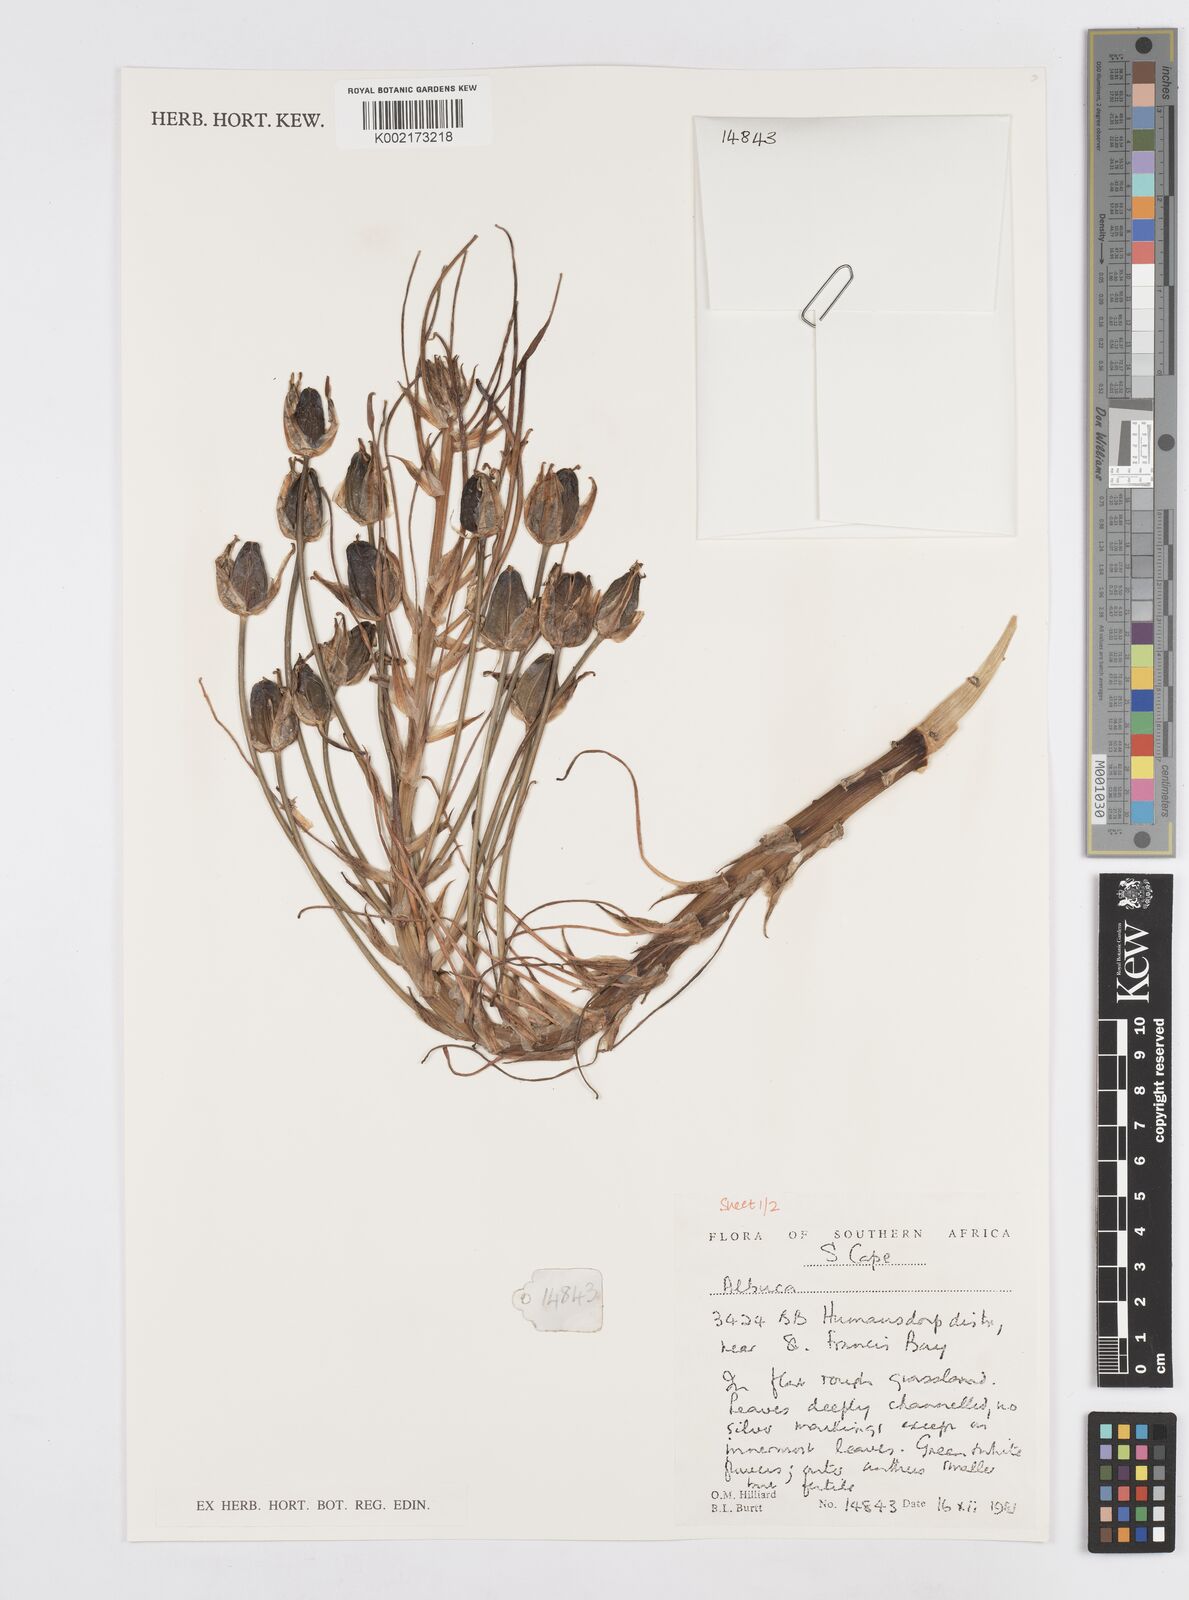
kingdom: Plantae
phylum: Tracheophyta
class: Liliopsida
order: Asparagales
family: Asparagaceae
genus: Albuca
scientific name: Albuca
